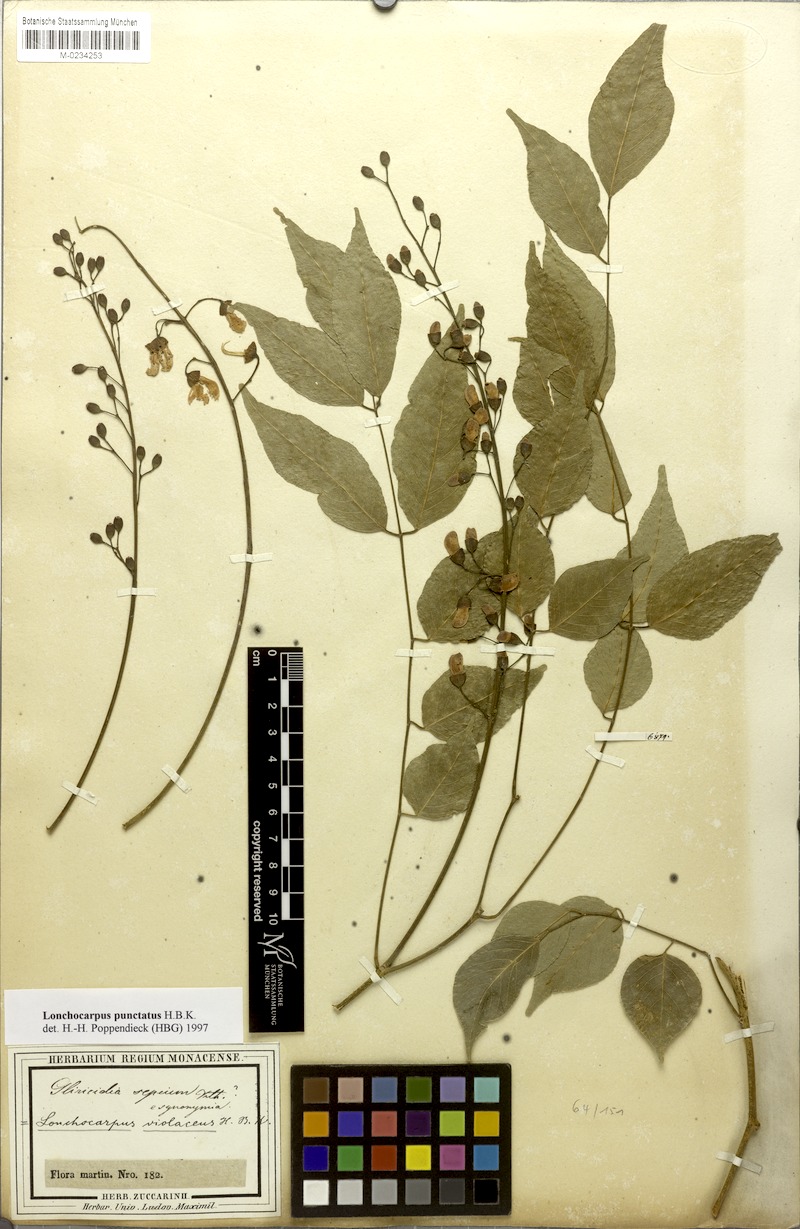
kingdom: Plantae
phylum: Tracheophyta
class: Magnoliopsida
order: Fabales
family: Fabaceae
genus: Lonchocarpus
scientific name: Lonchocarpus longistylus
